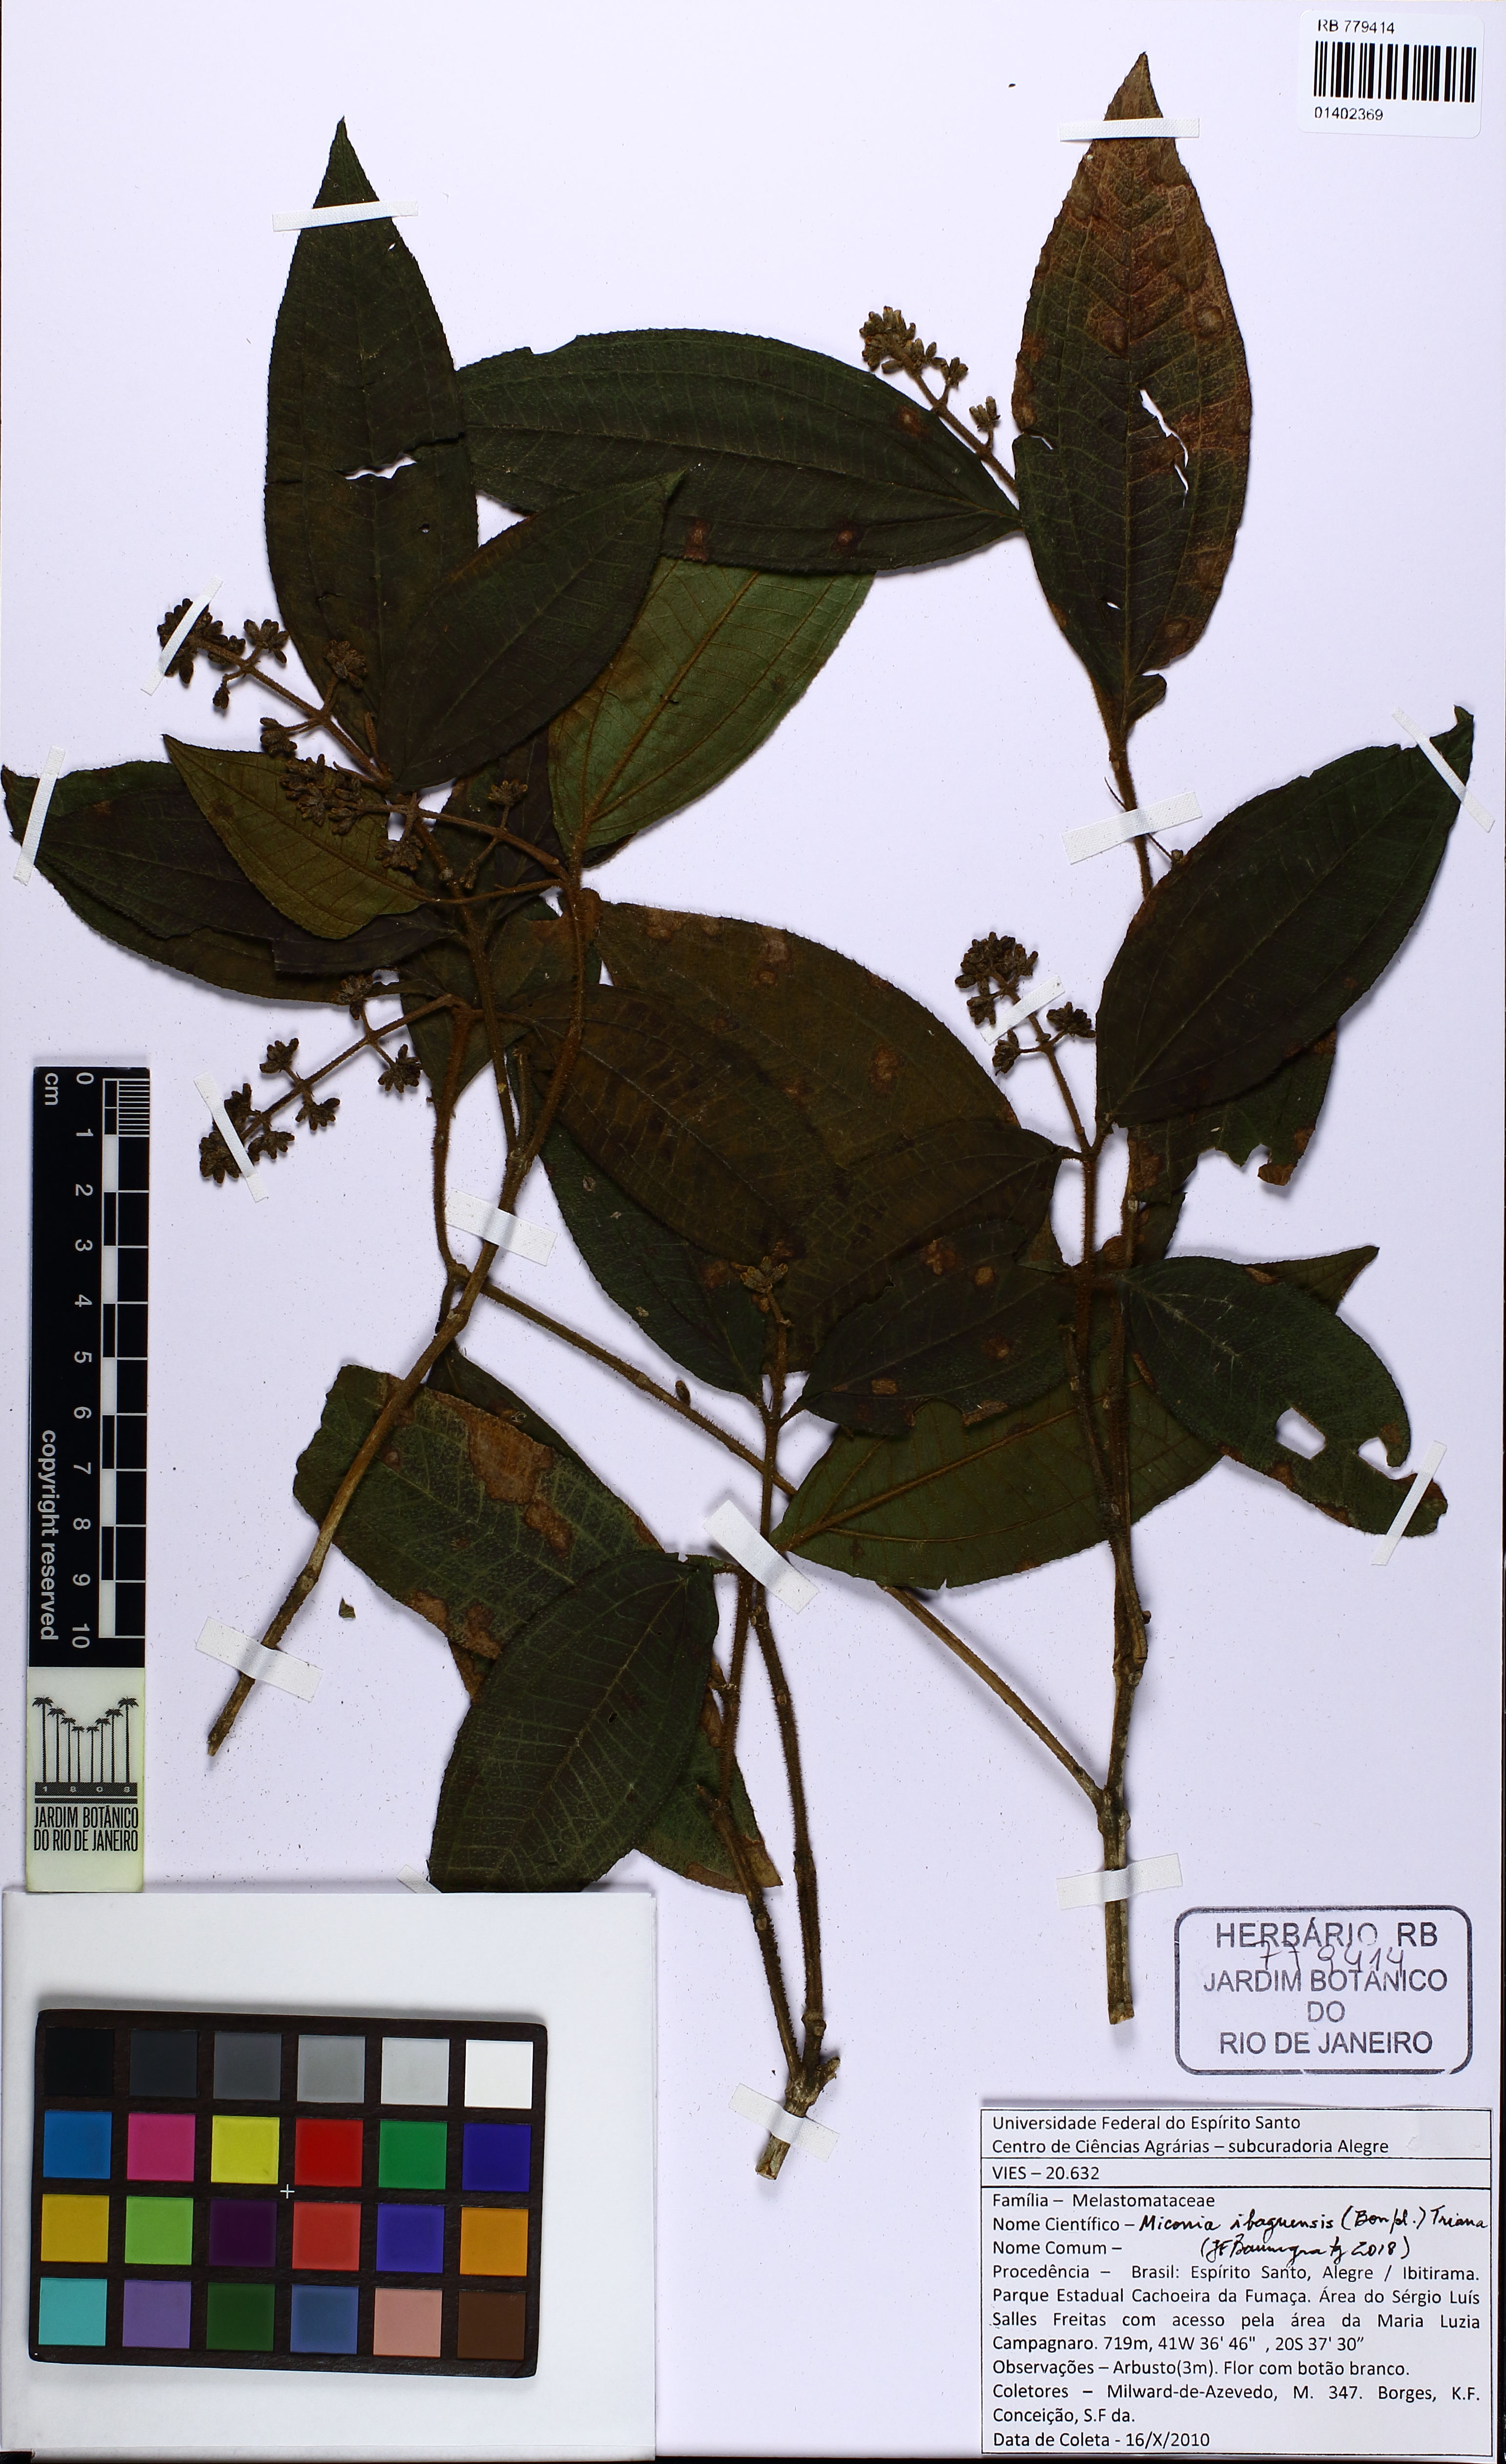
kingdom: Plantae
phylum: Tracheophyta
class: Magnoliopsida
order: Myrtales
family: Melastomataceae
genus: Miconia
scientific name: Miconia ibaguensis
